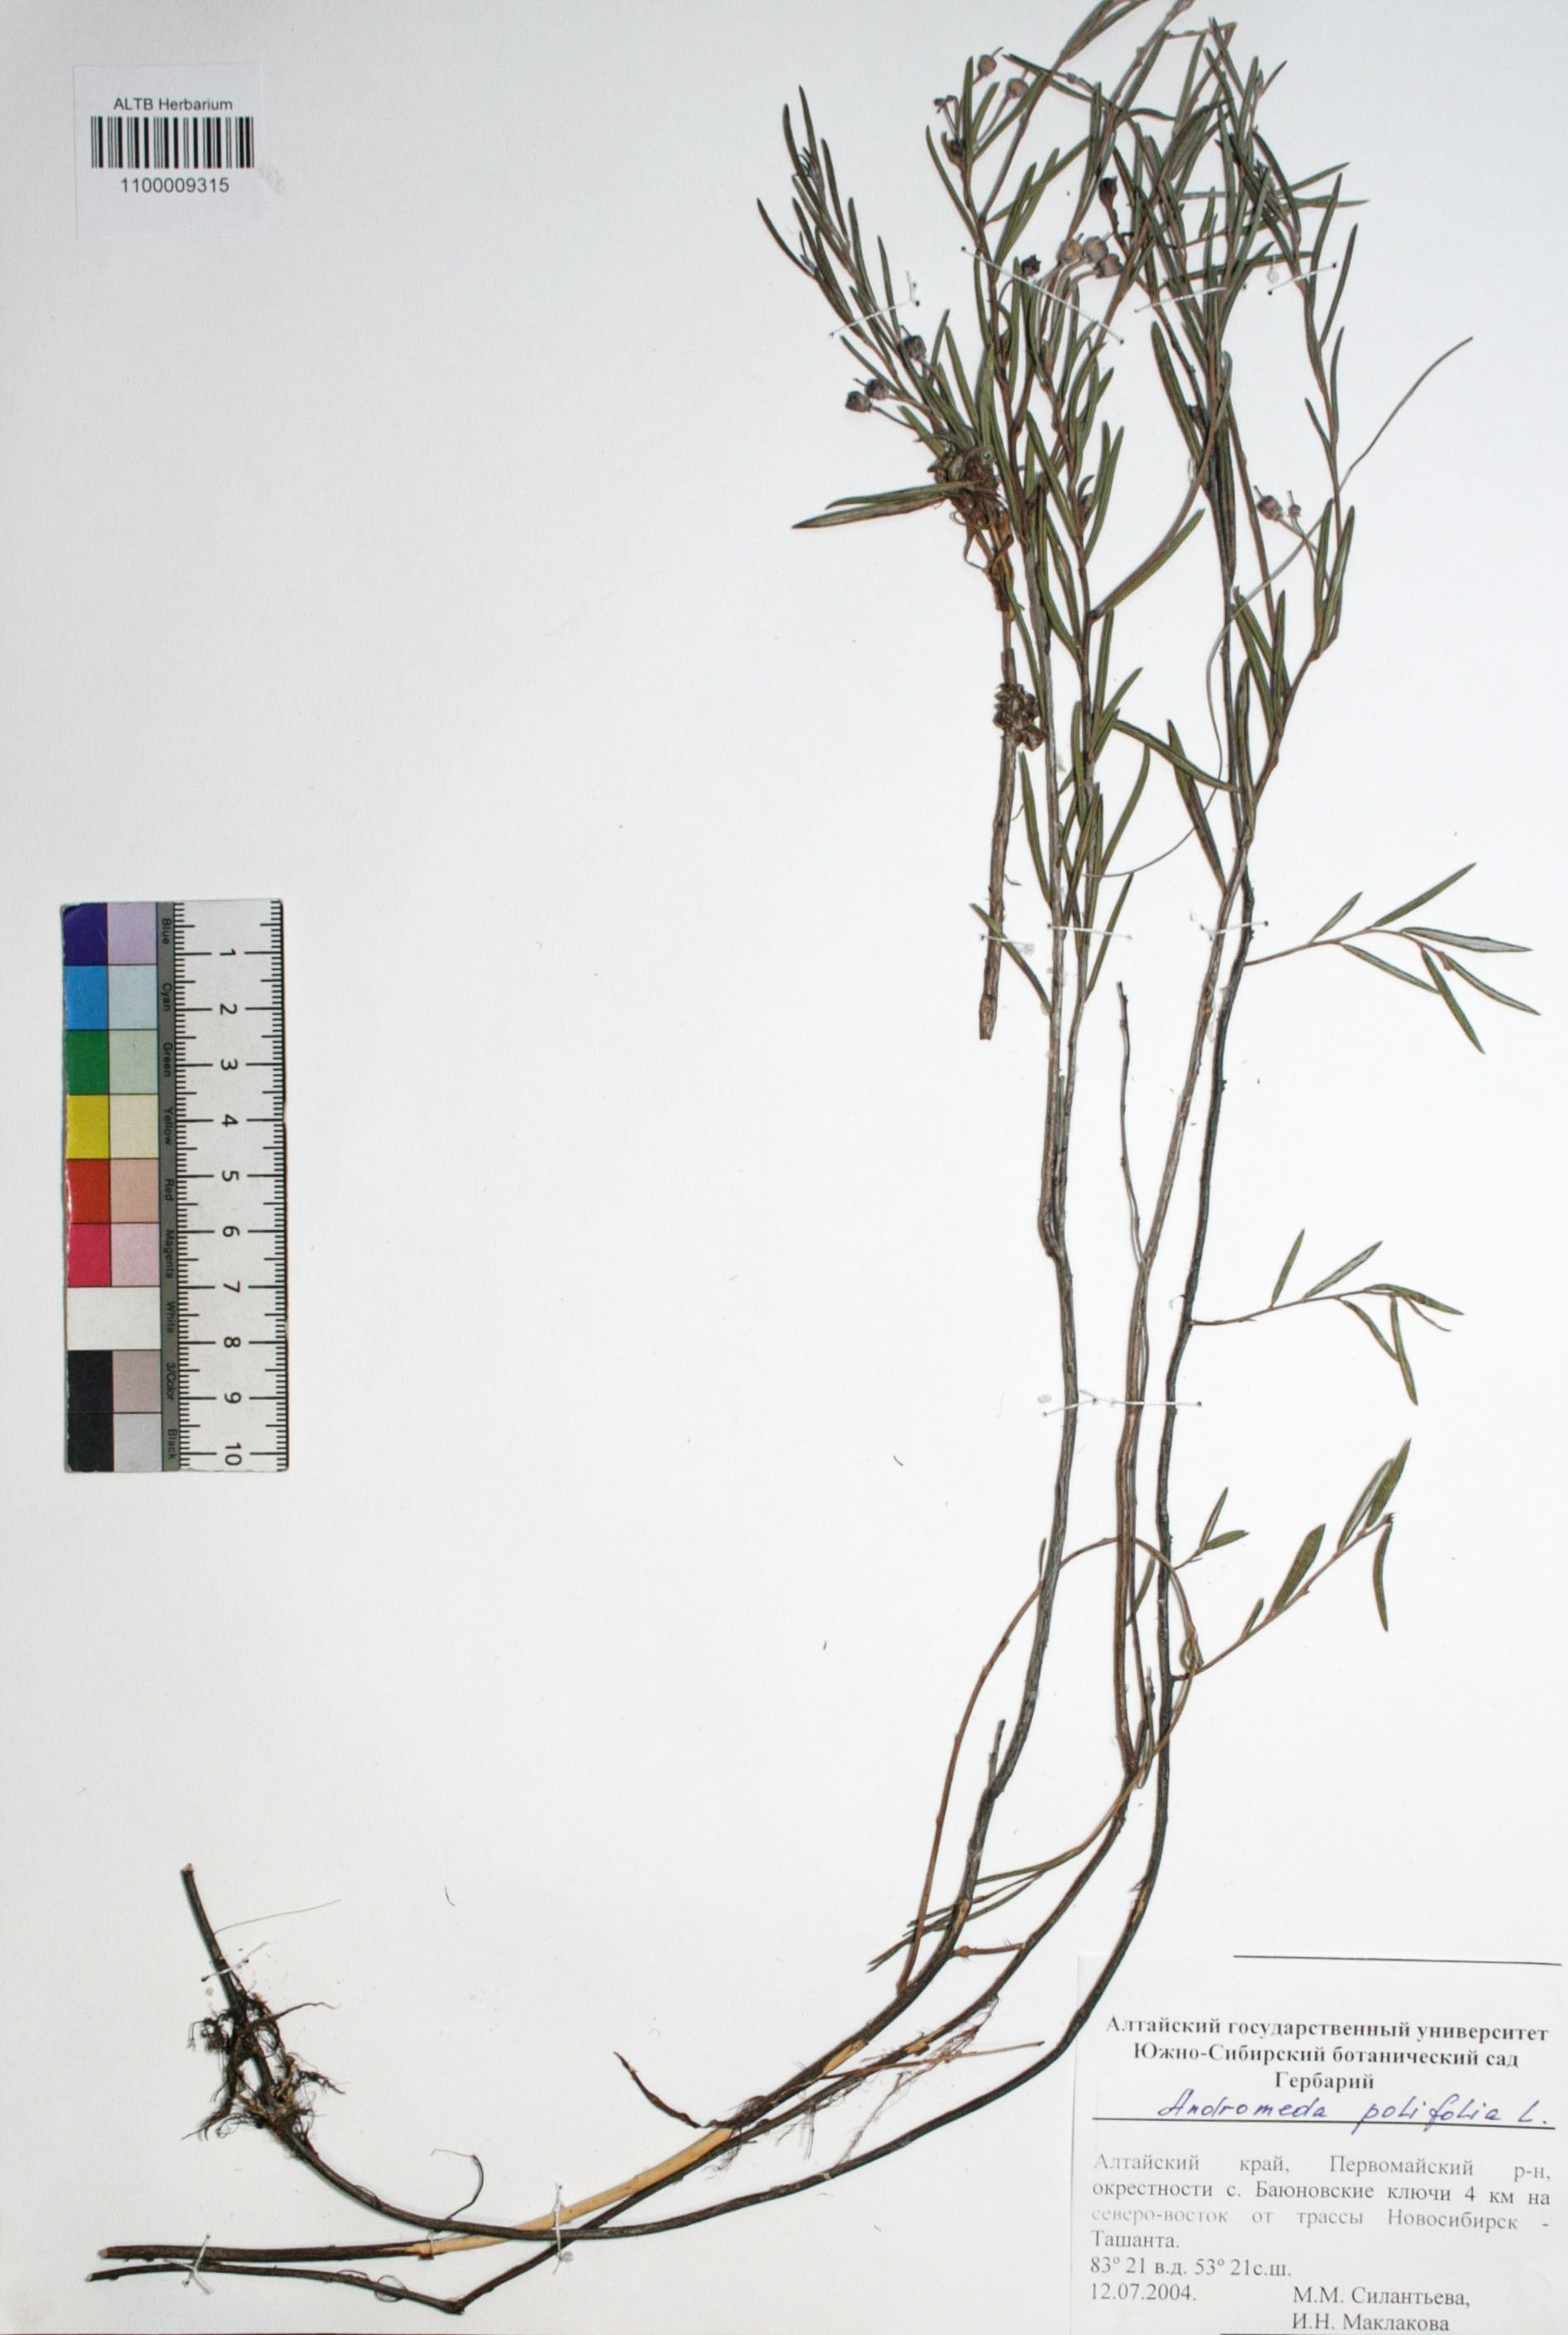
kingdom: Plantae
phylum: Tracheophyta
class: Magnoliopsida
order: Ericales
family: Ericaceae
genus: Andromeda
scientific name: Andromeda polifolia
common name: Bog-rosemary
